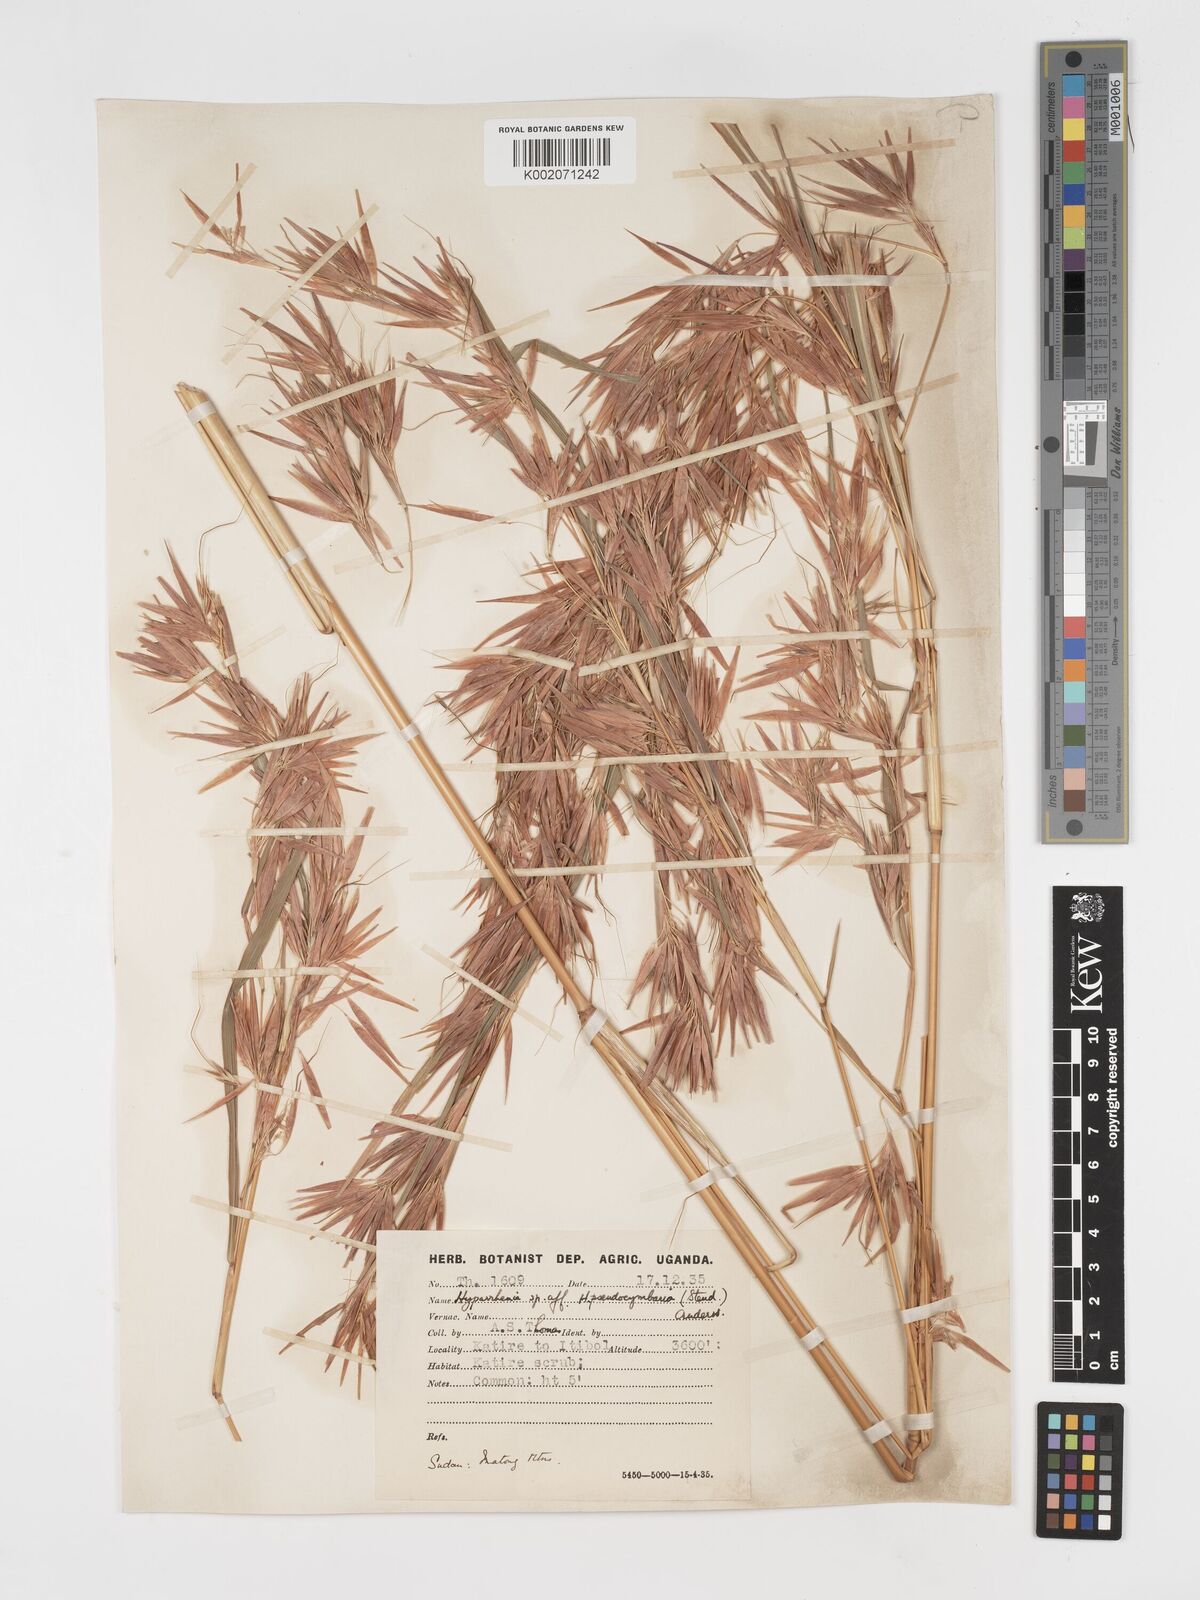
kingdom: Plantae
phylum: Tracheophyta
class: Liliopsida
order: Poales
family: Poaceae
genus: Hyparrhenia
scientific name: Hyparrhenia madaropoda
